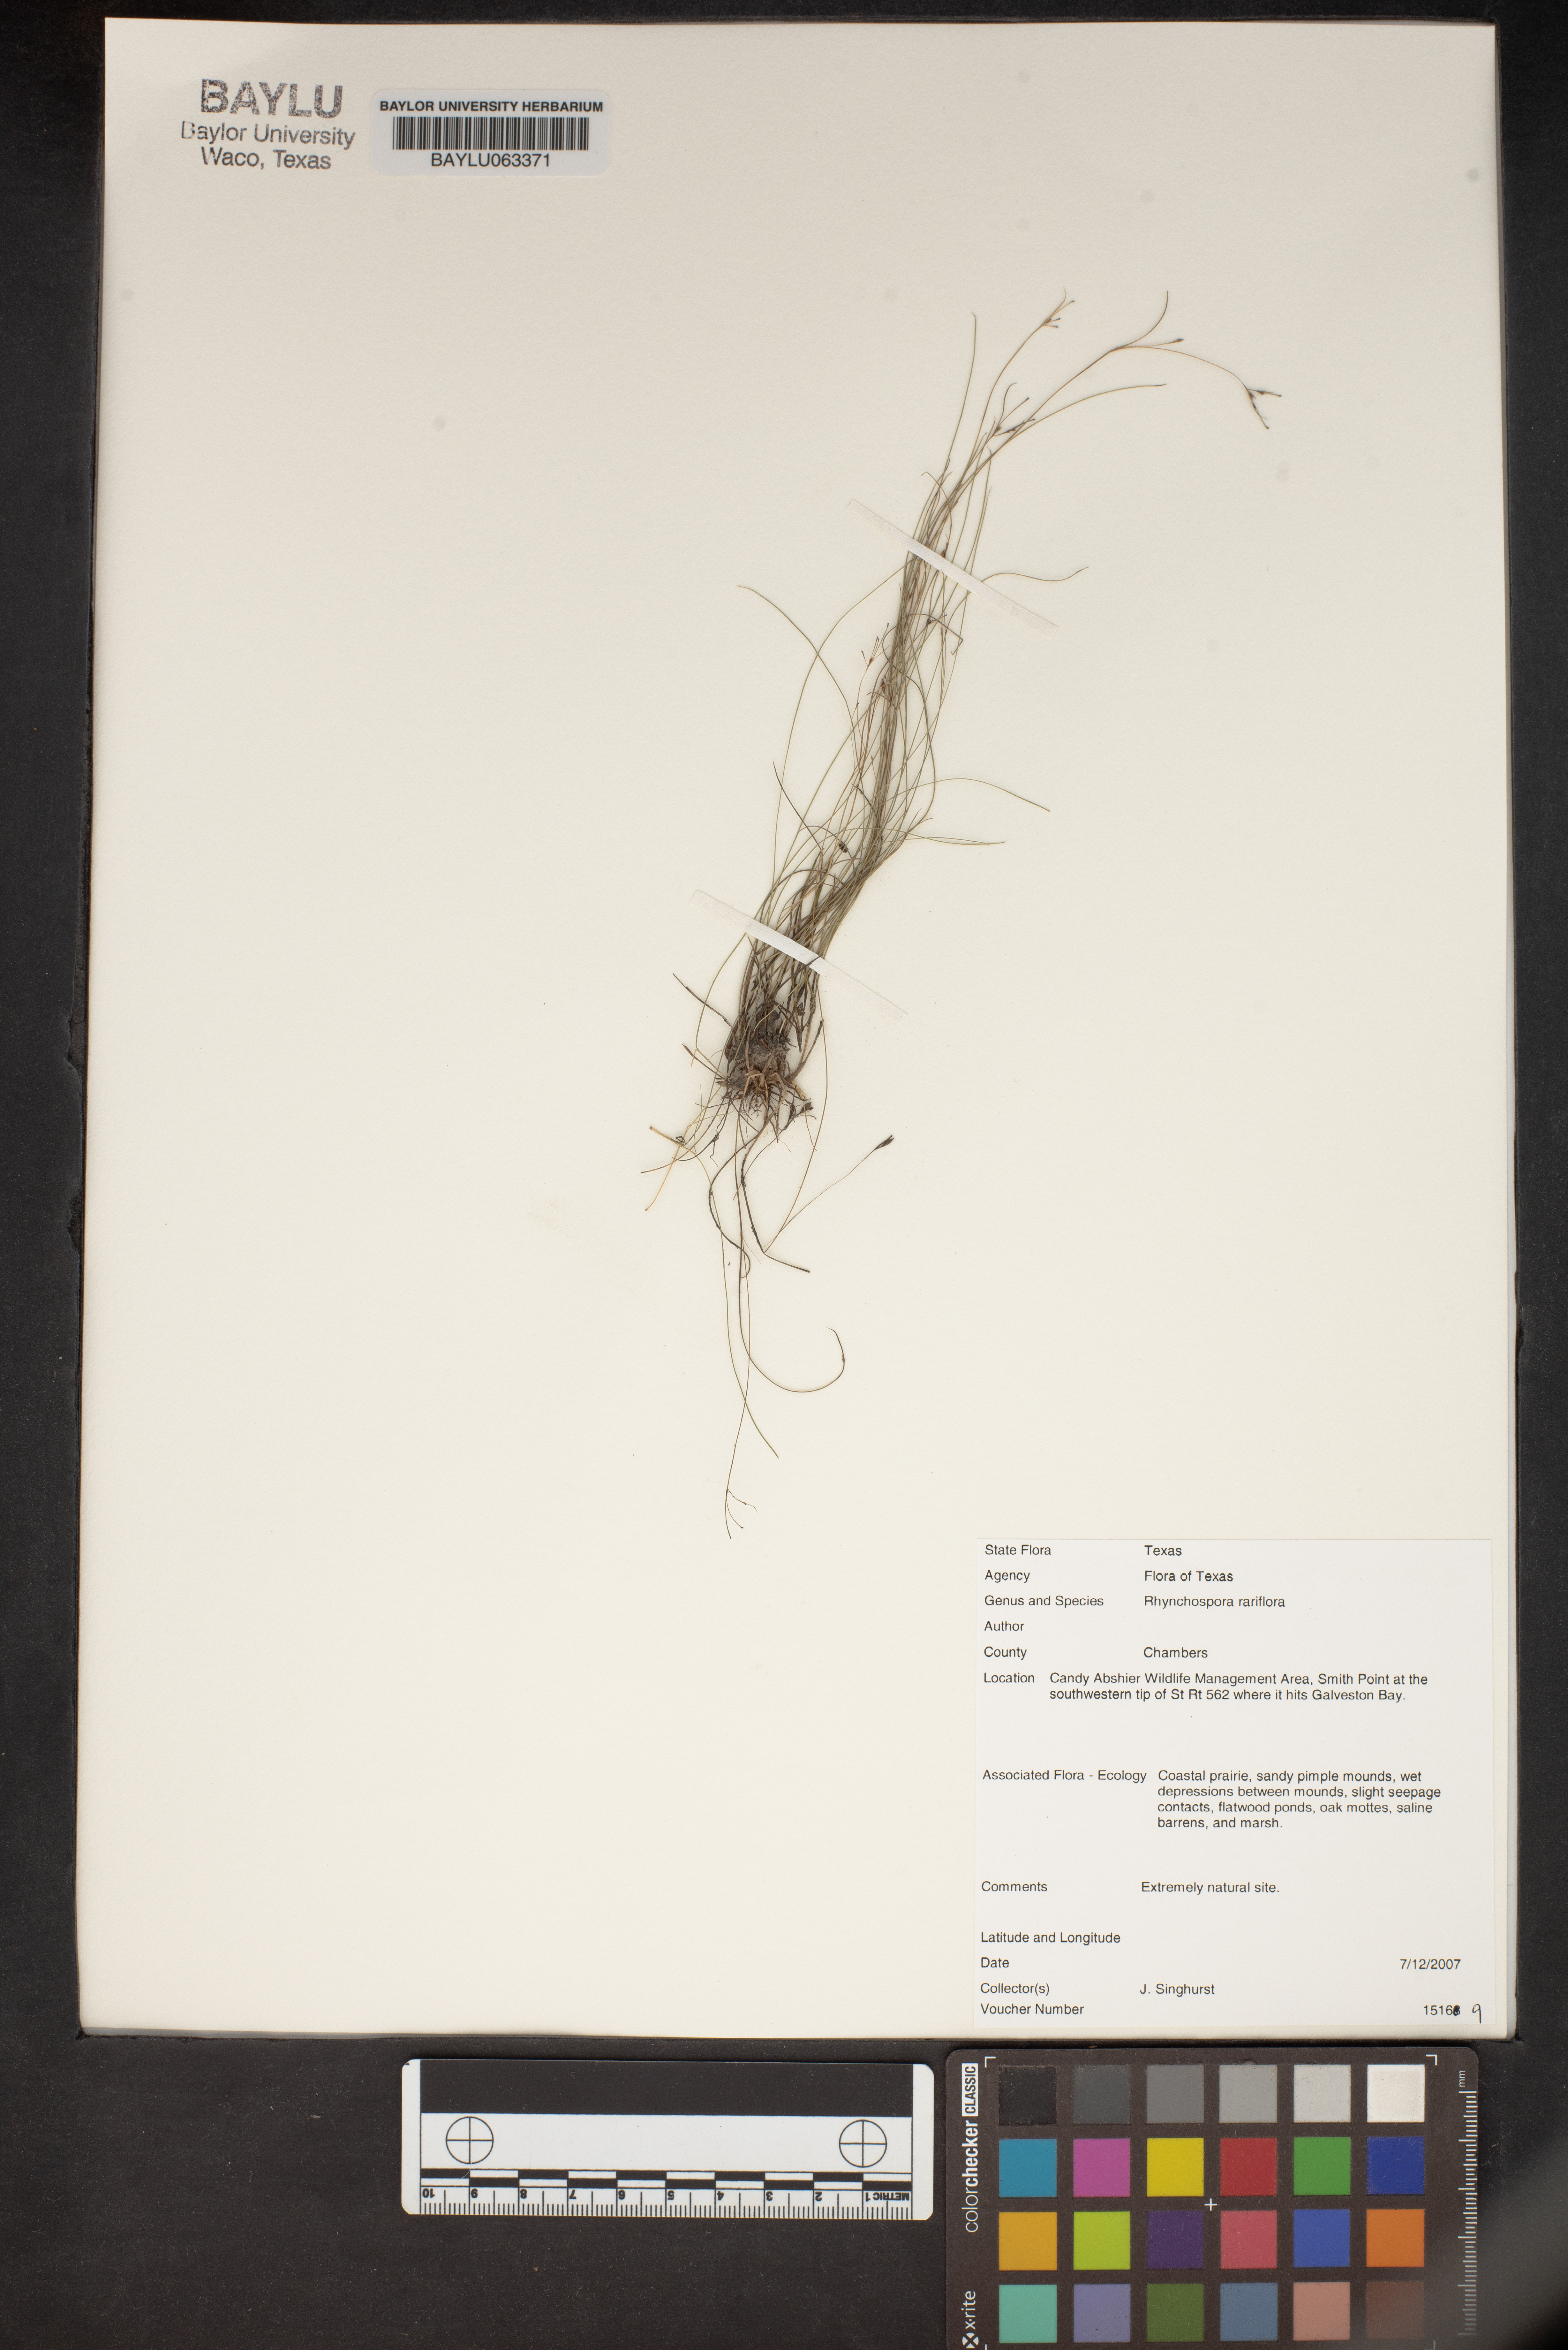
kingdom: Plantae
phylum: Tracheophyta
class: Liliopsida
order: Poales
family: Cyperaceae
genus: Rhynchospora
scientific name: Rhynchospora rariflora
